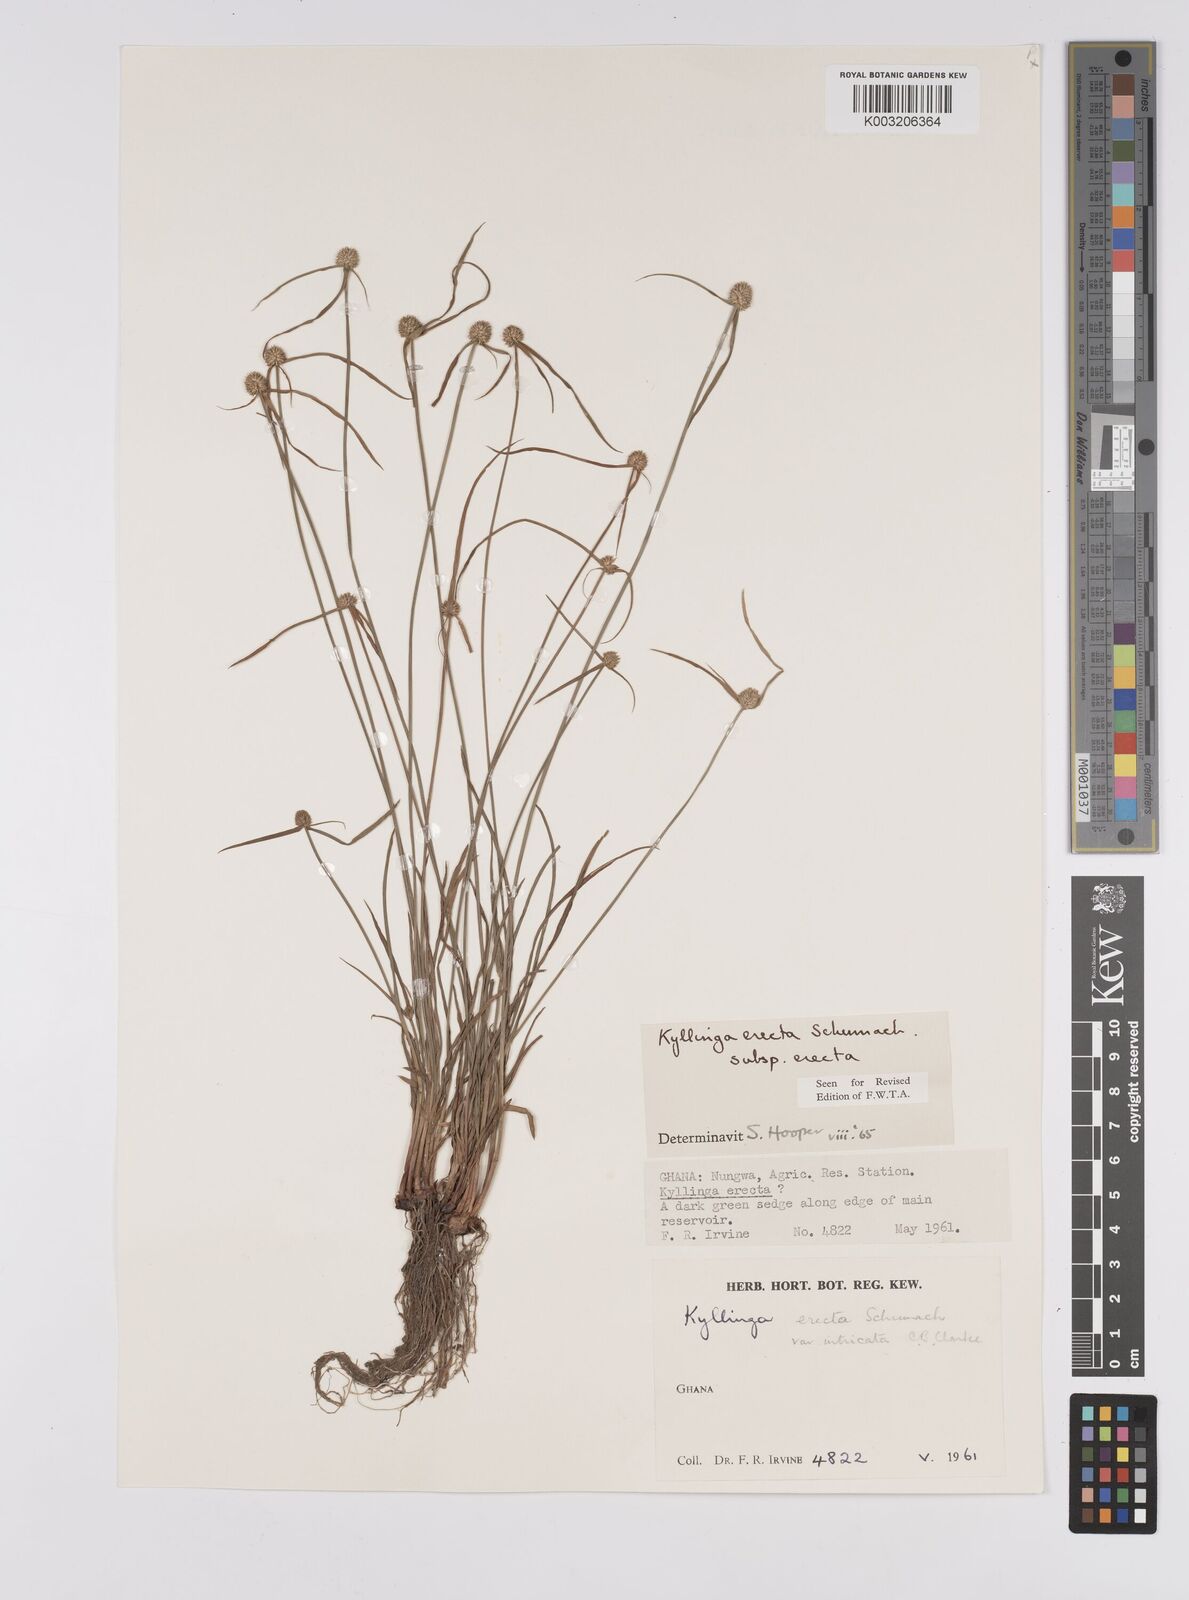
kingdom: Plantae
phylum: Tracheophyta
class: Liliopsida
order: Poales
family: Cyperaceae
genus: Cyperus
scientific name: Cyperus erectus
